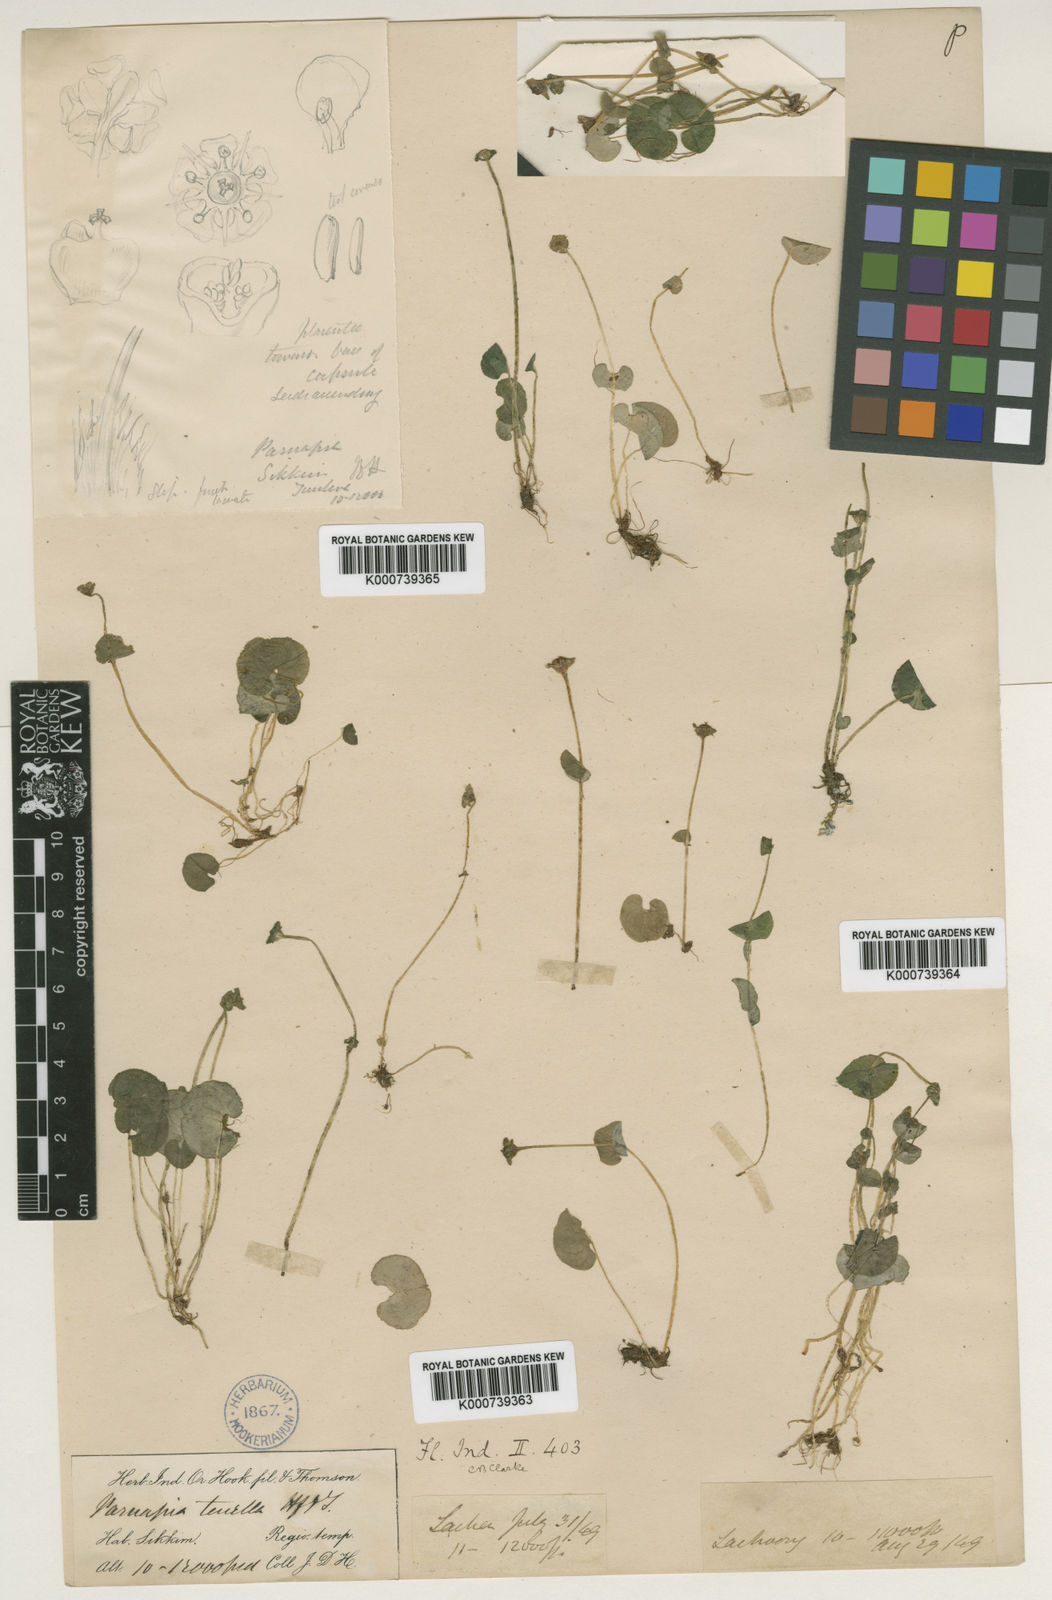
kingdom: Plantae
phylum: Tracheophyta
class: Magnoliopsida
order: Celastrales
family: Parnassiaceae
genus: Parnassia
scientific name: Parnassia tenella
